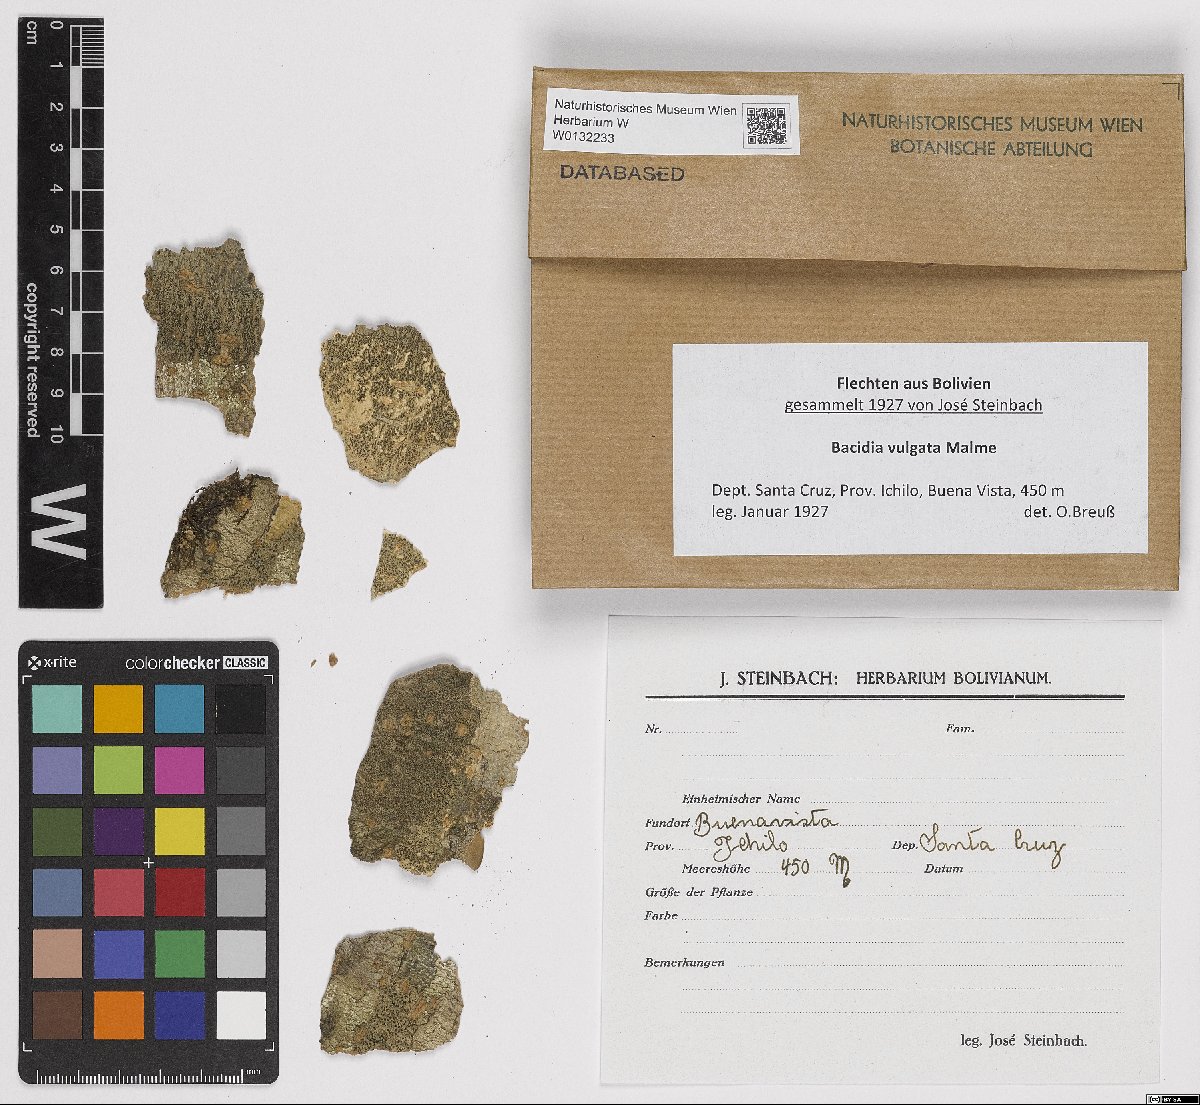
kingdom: Fungi
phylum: Ascomycota
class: Lecanoromycetes
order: Lecanorales
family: Ramalinaceae
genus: Bacidia
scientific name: Bacidia
